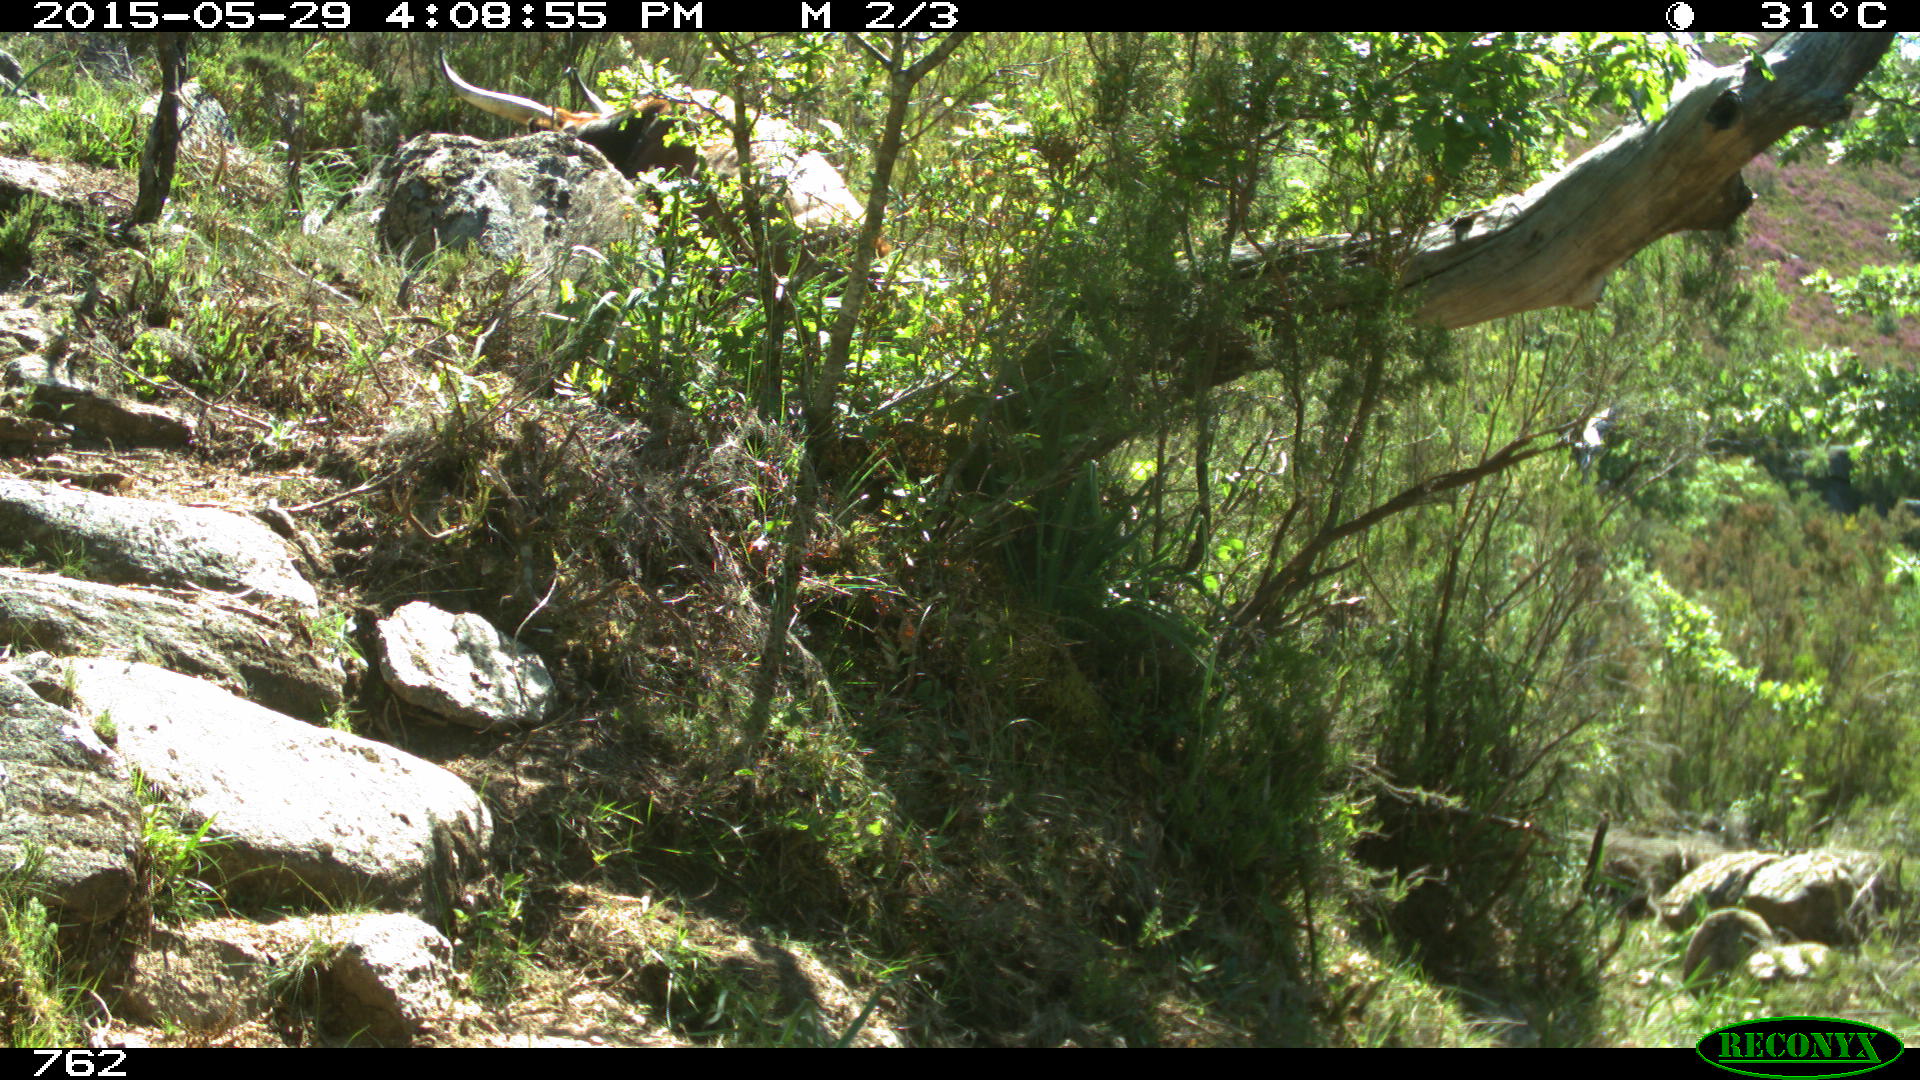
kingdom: Animalia
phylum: Chordata
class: Mammalia
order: Artiodactyla
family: Bovidae
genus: Bos
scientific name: Bos taurus
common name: Domesticated cattle
